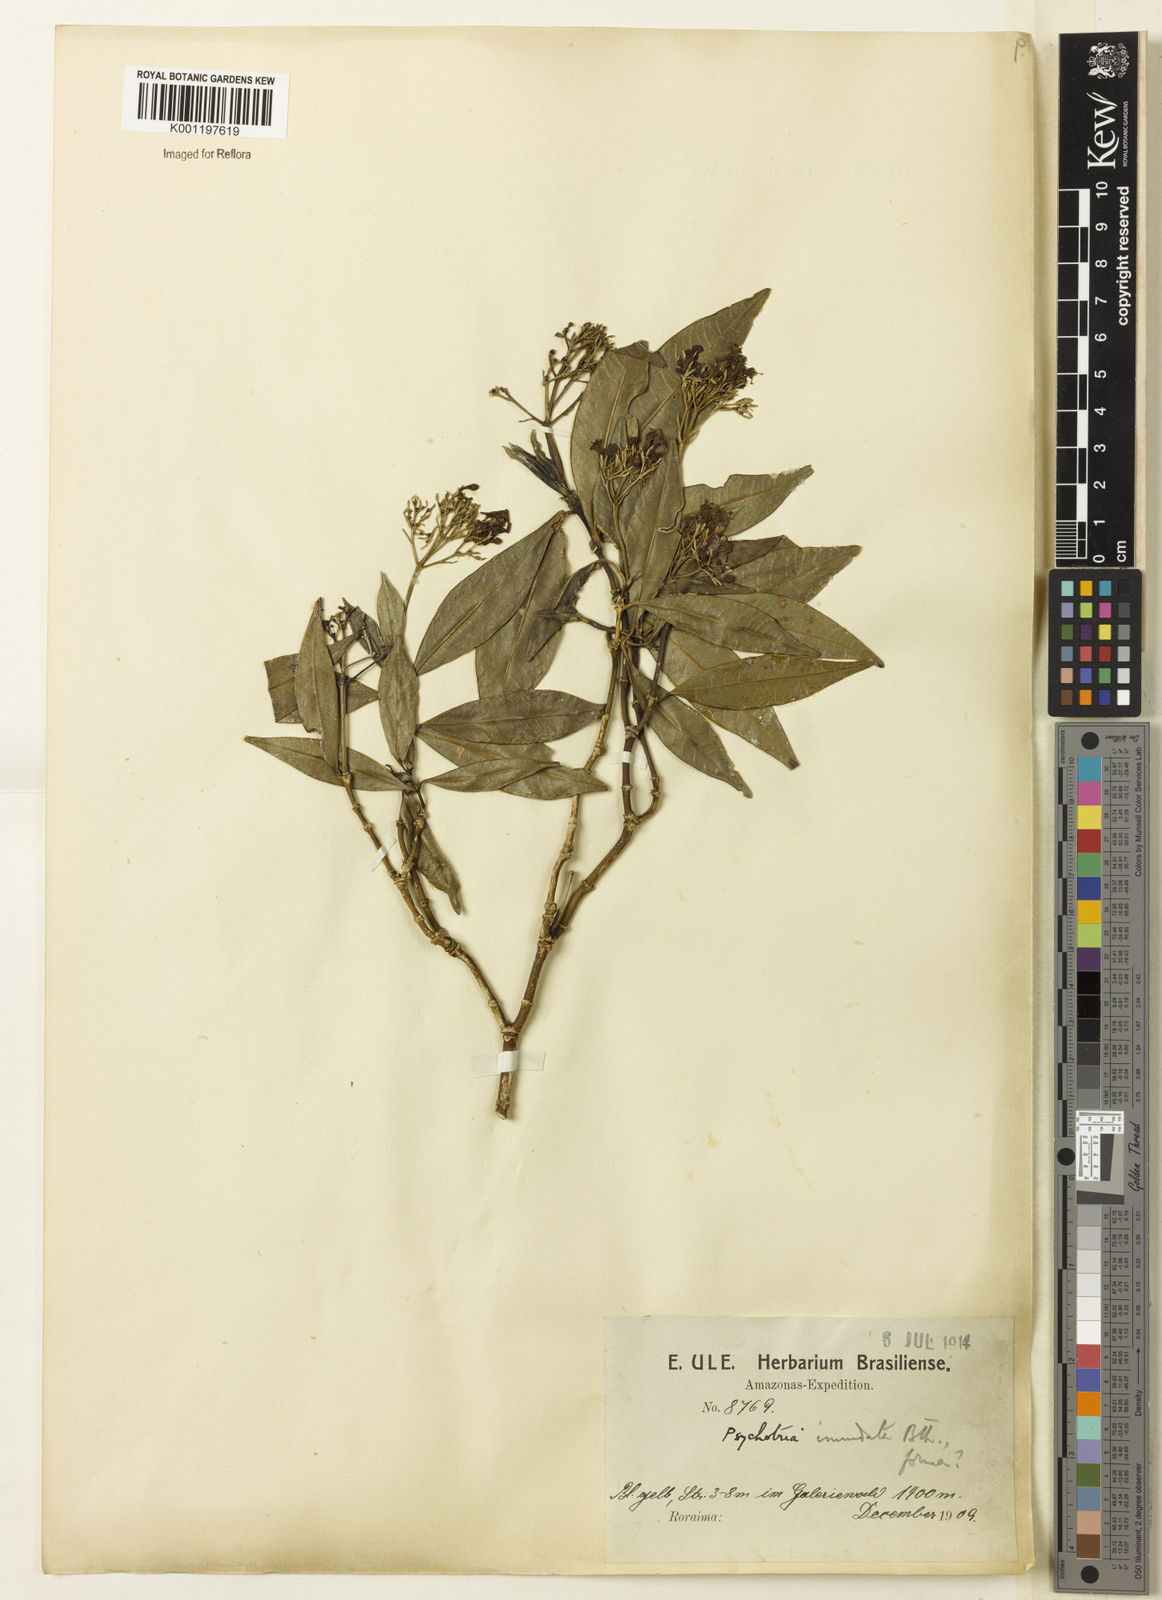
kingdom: Plantae
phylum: Tracheophyta
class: Magnoliopsida
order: Gentianales
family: Rubiaceae
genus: Palicourea
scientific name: Palicourea violacea
